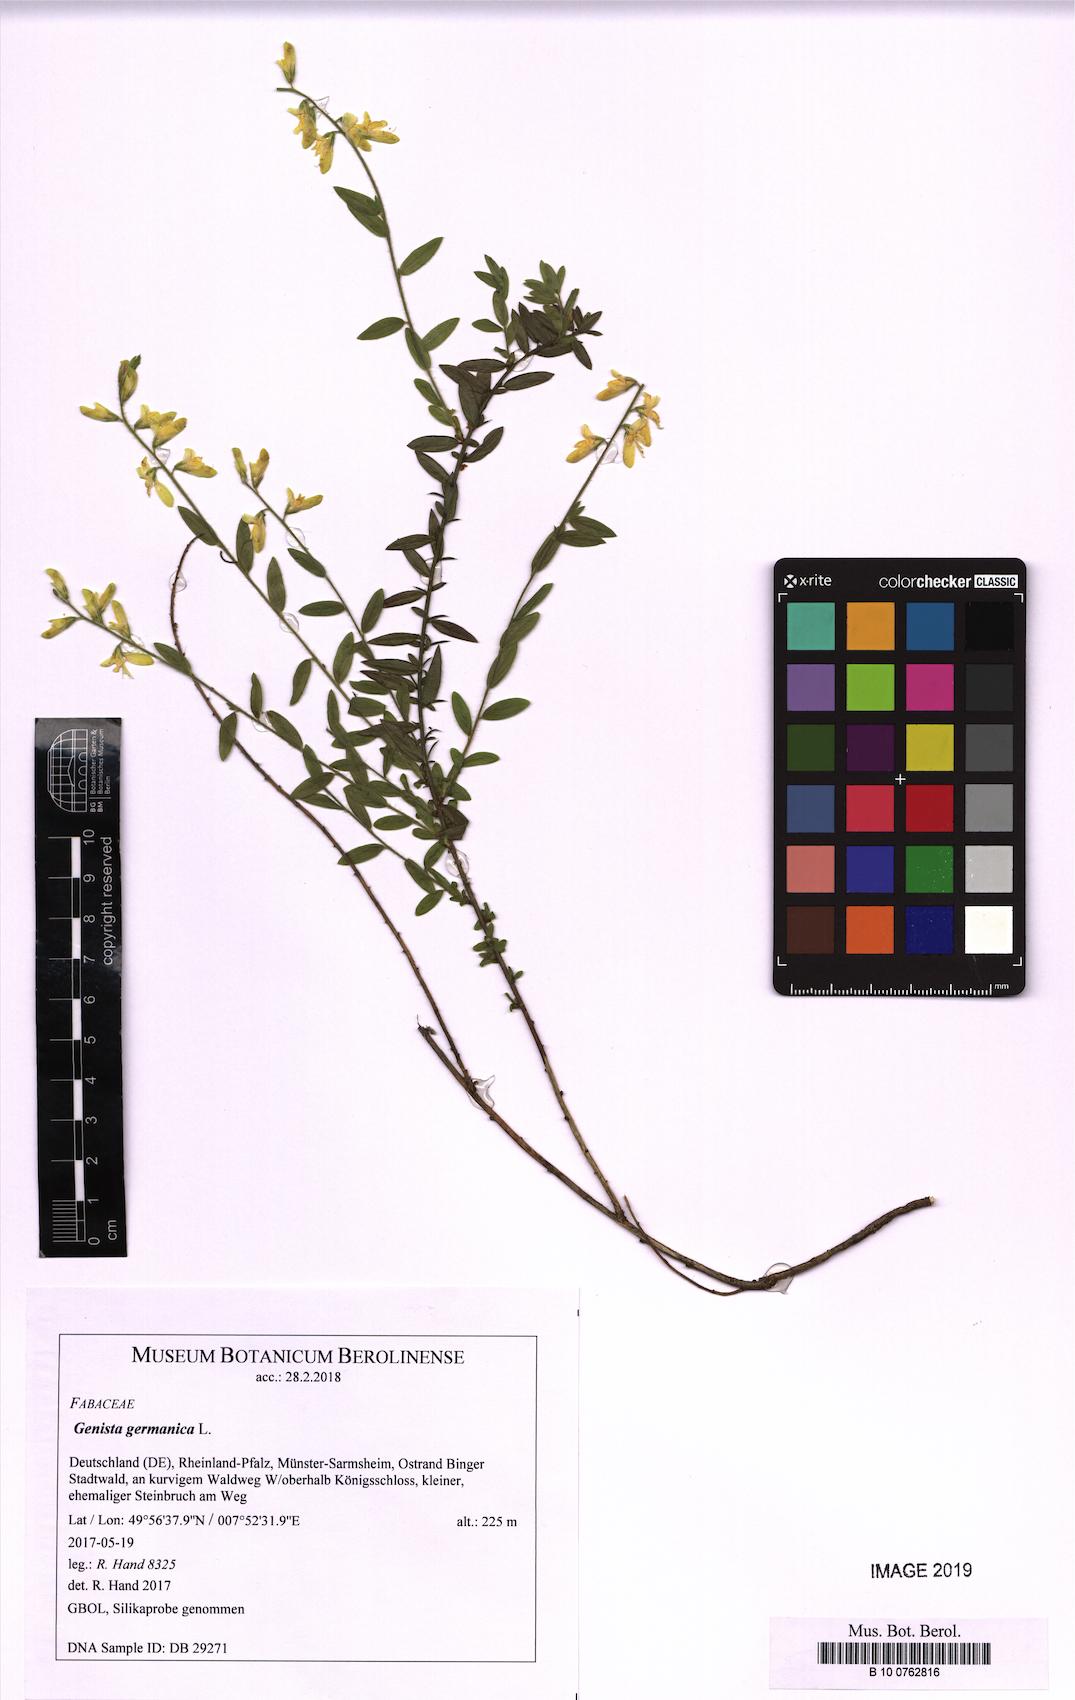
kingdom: Plantae
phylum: Tracheophyta
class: Magnoliopsida
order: Fabales
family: Fabaceae
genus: Genista
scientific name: Genista germanica
